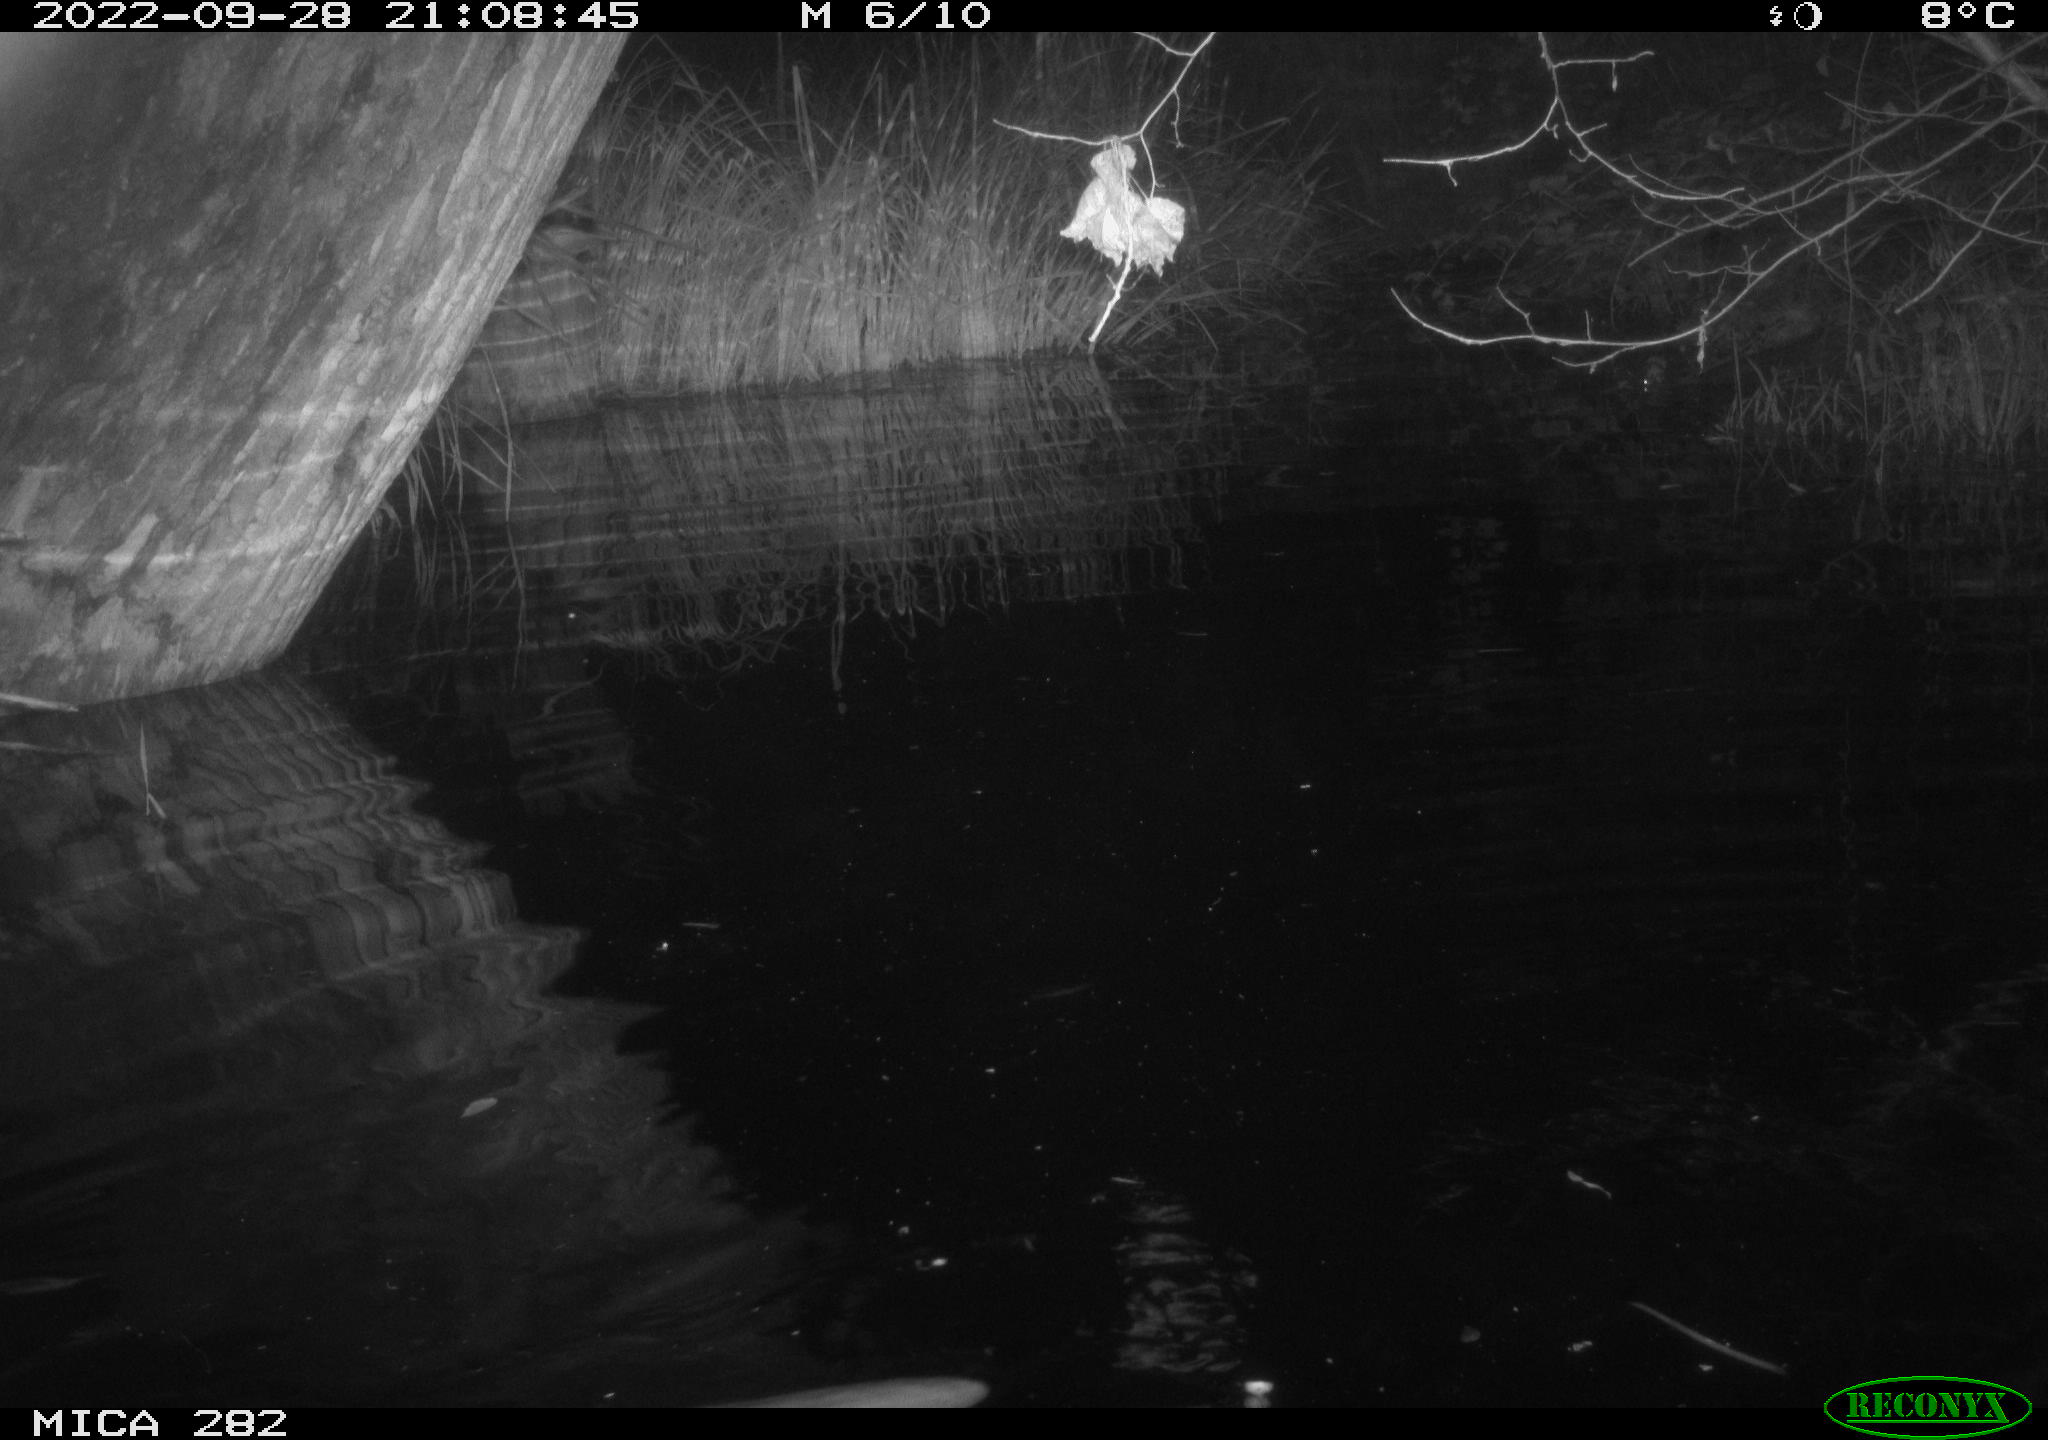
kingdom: Animalia
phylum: Chordata
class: Mammalia
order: Rodentia
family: Castoridae
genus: Castor
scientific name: Castor fiber
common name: Eurasian beaver
